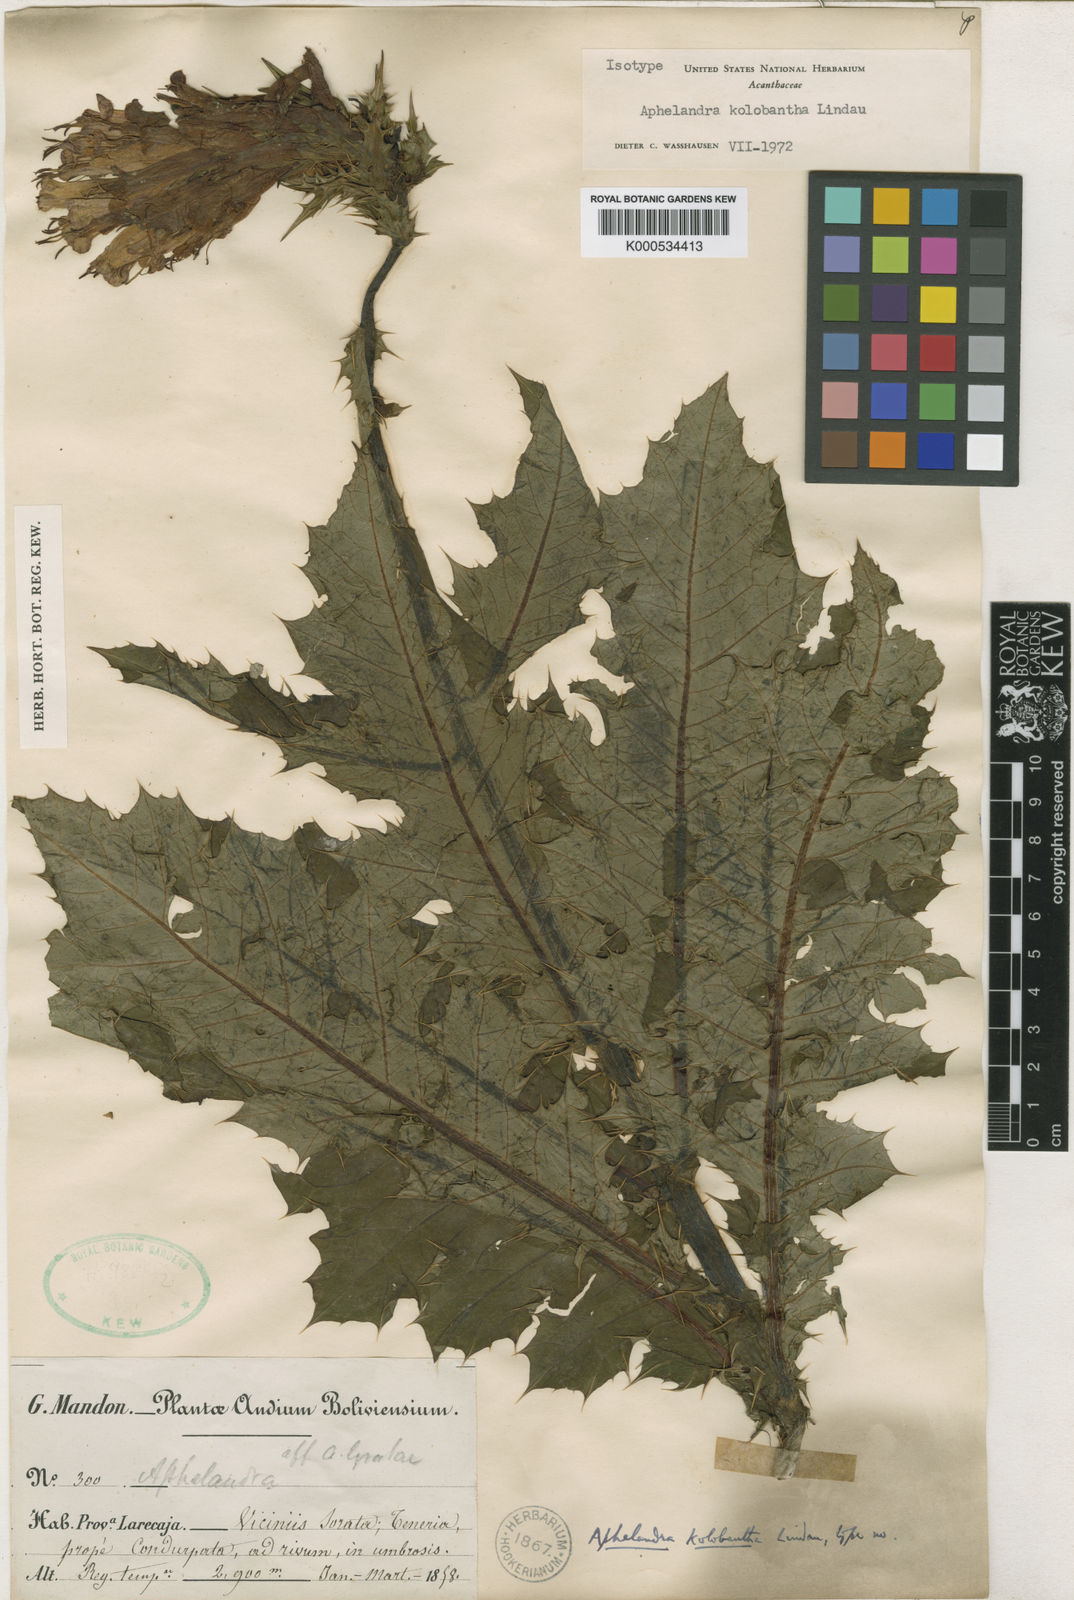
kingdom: Plantae
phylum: Tracheophyta
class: Magnoliopsida
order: Lamiales
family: Acanthaceae
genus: Aphelandra
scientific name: Aphelandra kolobantha
